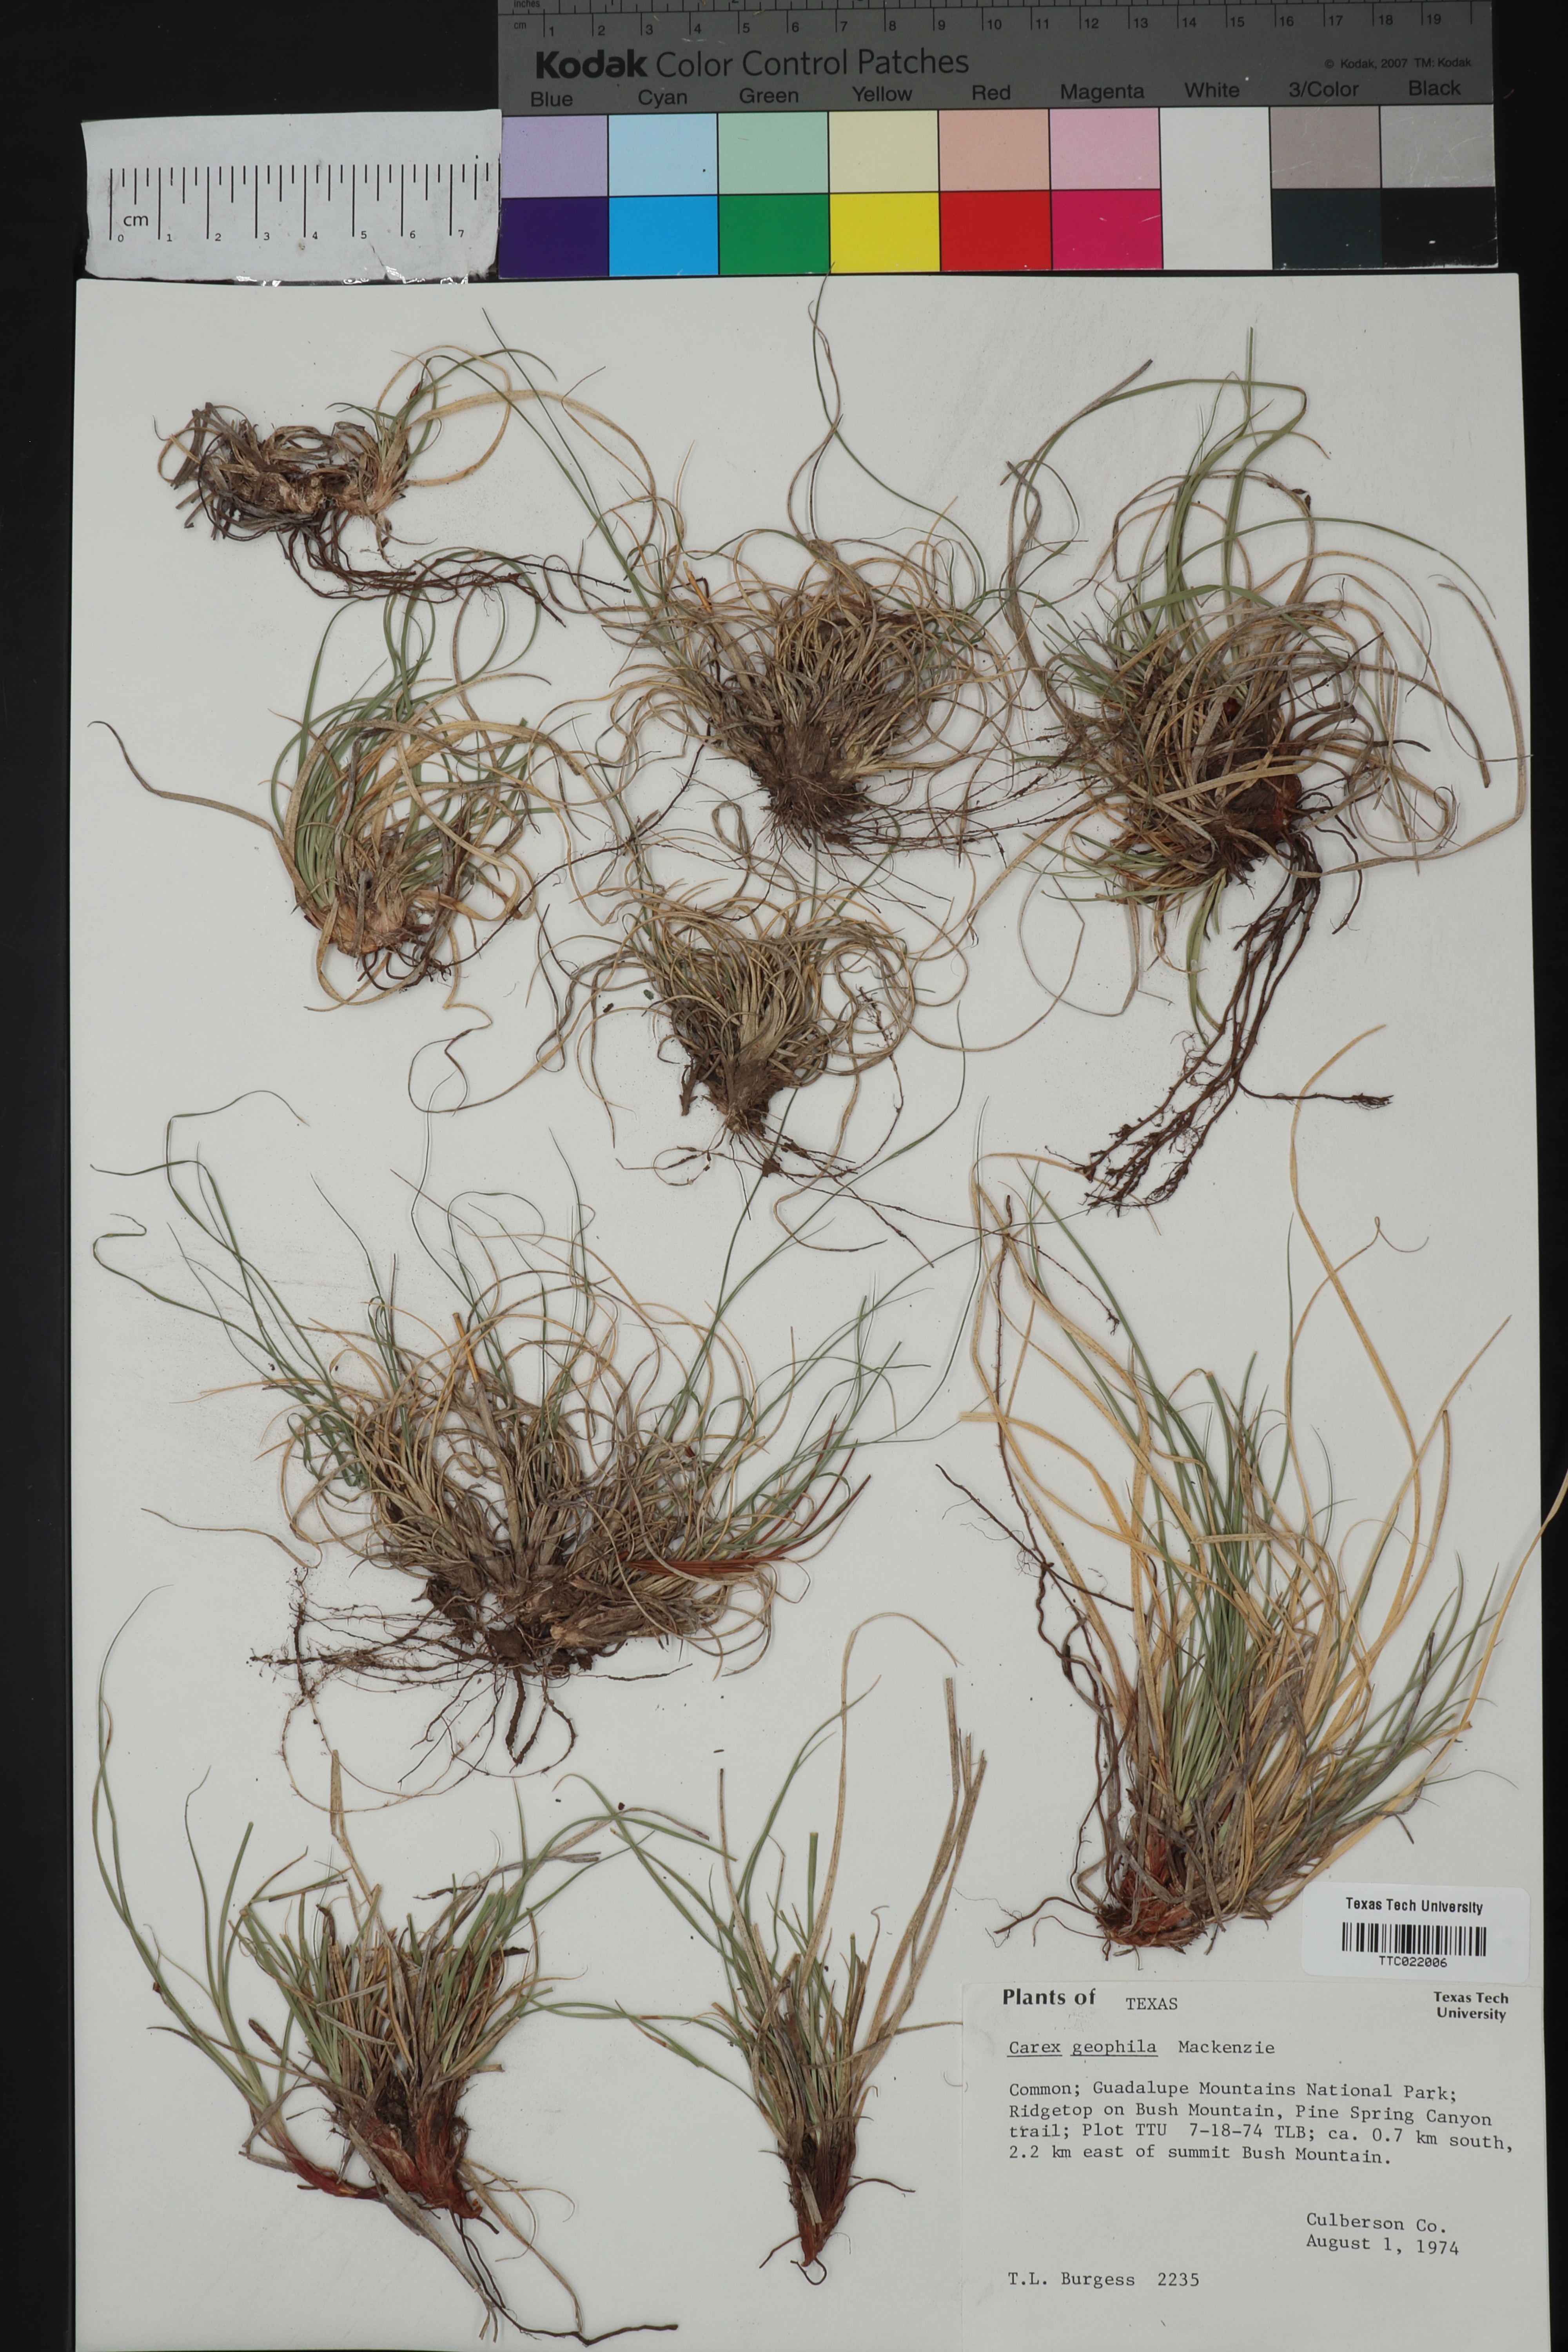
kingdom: Plantae
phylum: Tracheophyta
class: Liliopsida
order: Poales
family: Cyperaceae
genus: Carex
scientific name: Carex geophila
